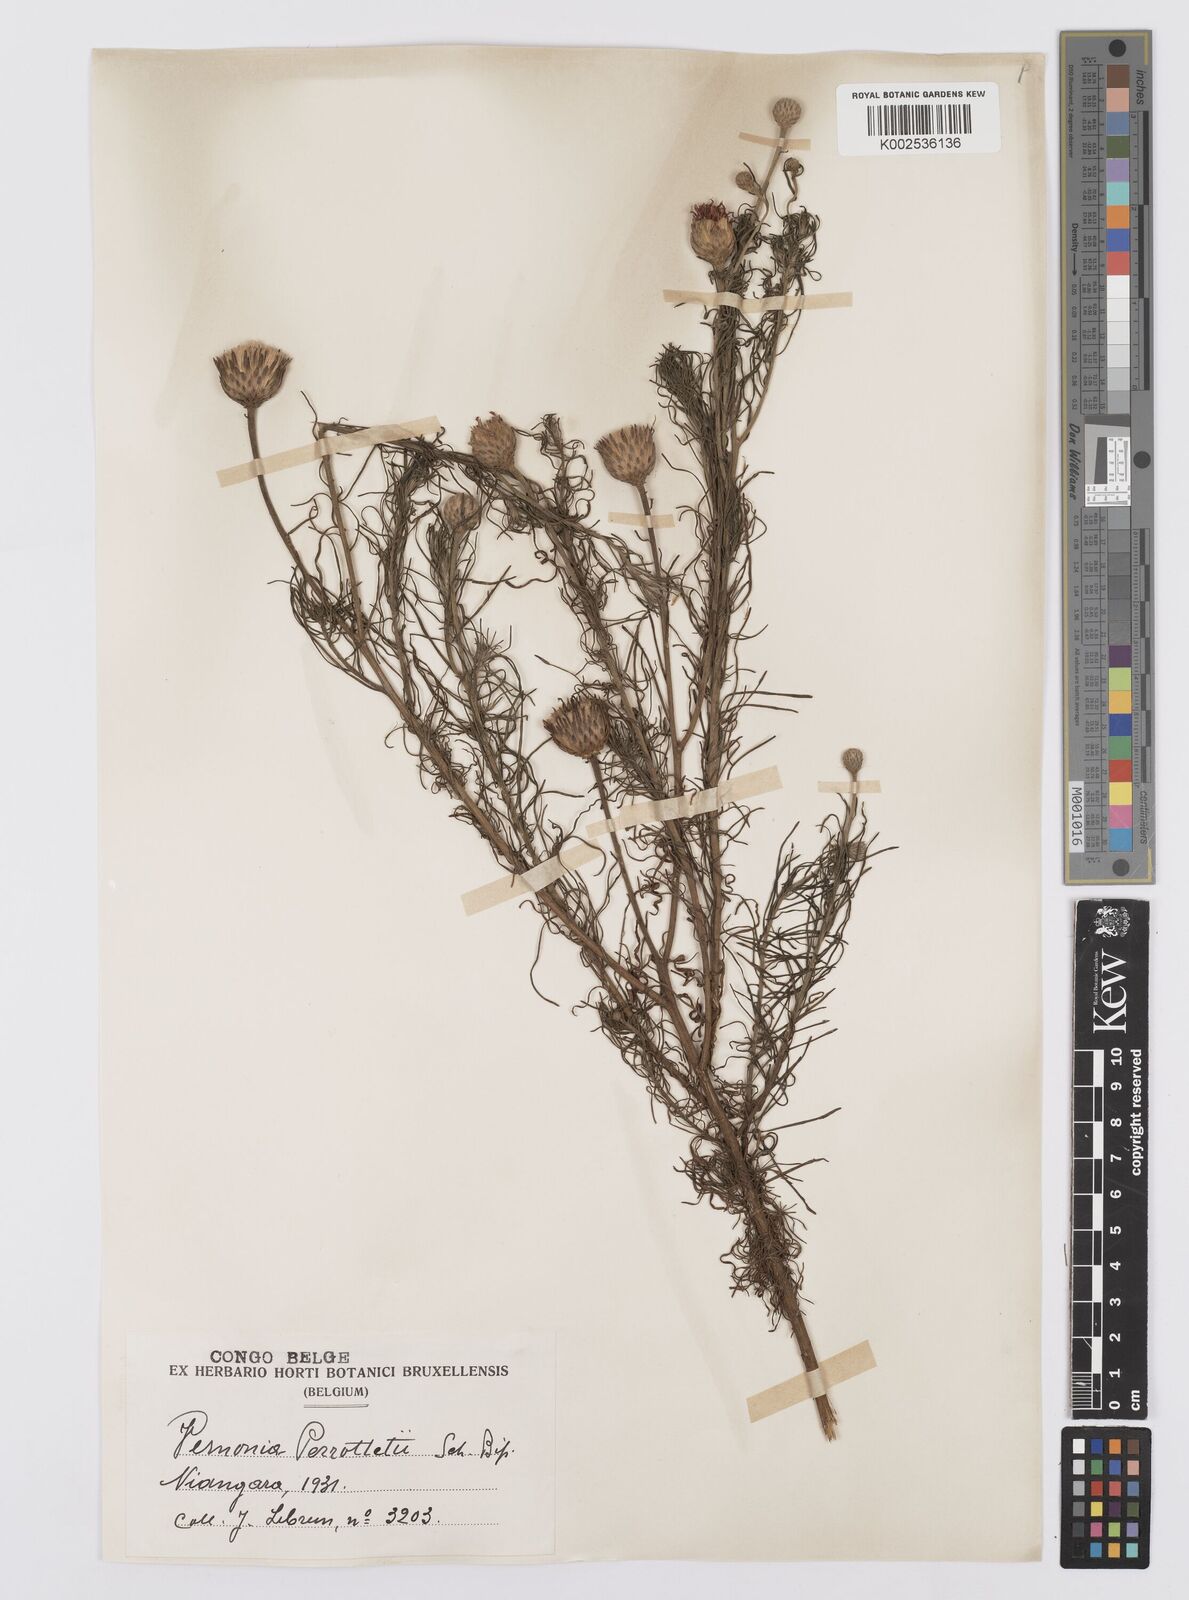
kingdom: Plantae
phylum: Tracheophyta
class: Magnoliopsida
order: Asterales
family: Asteraceae
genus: Crystallopollen
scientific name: Crystallopollen serratuloides
